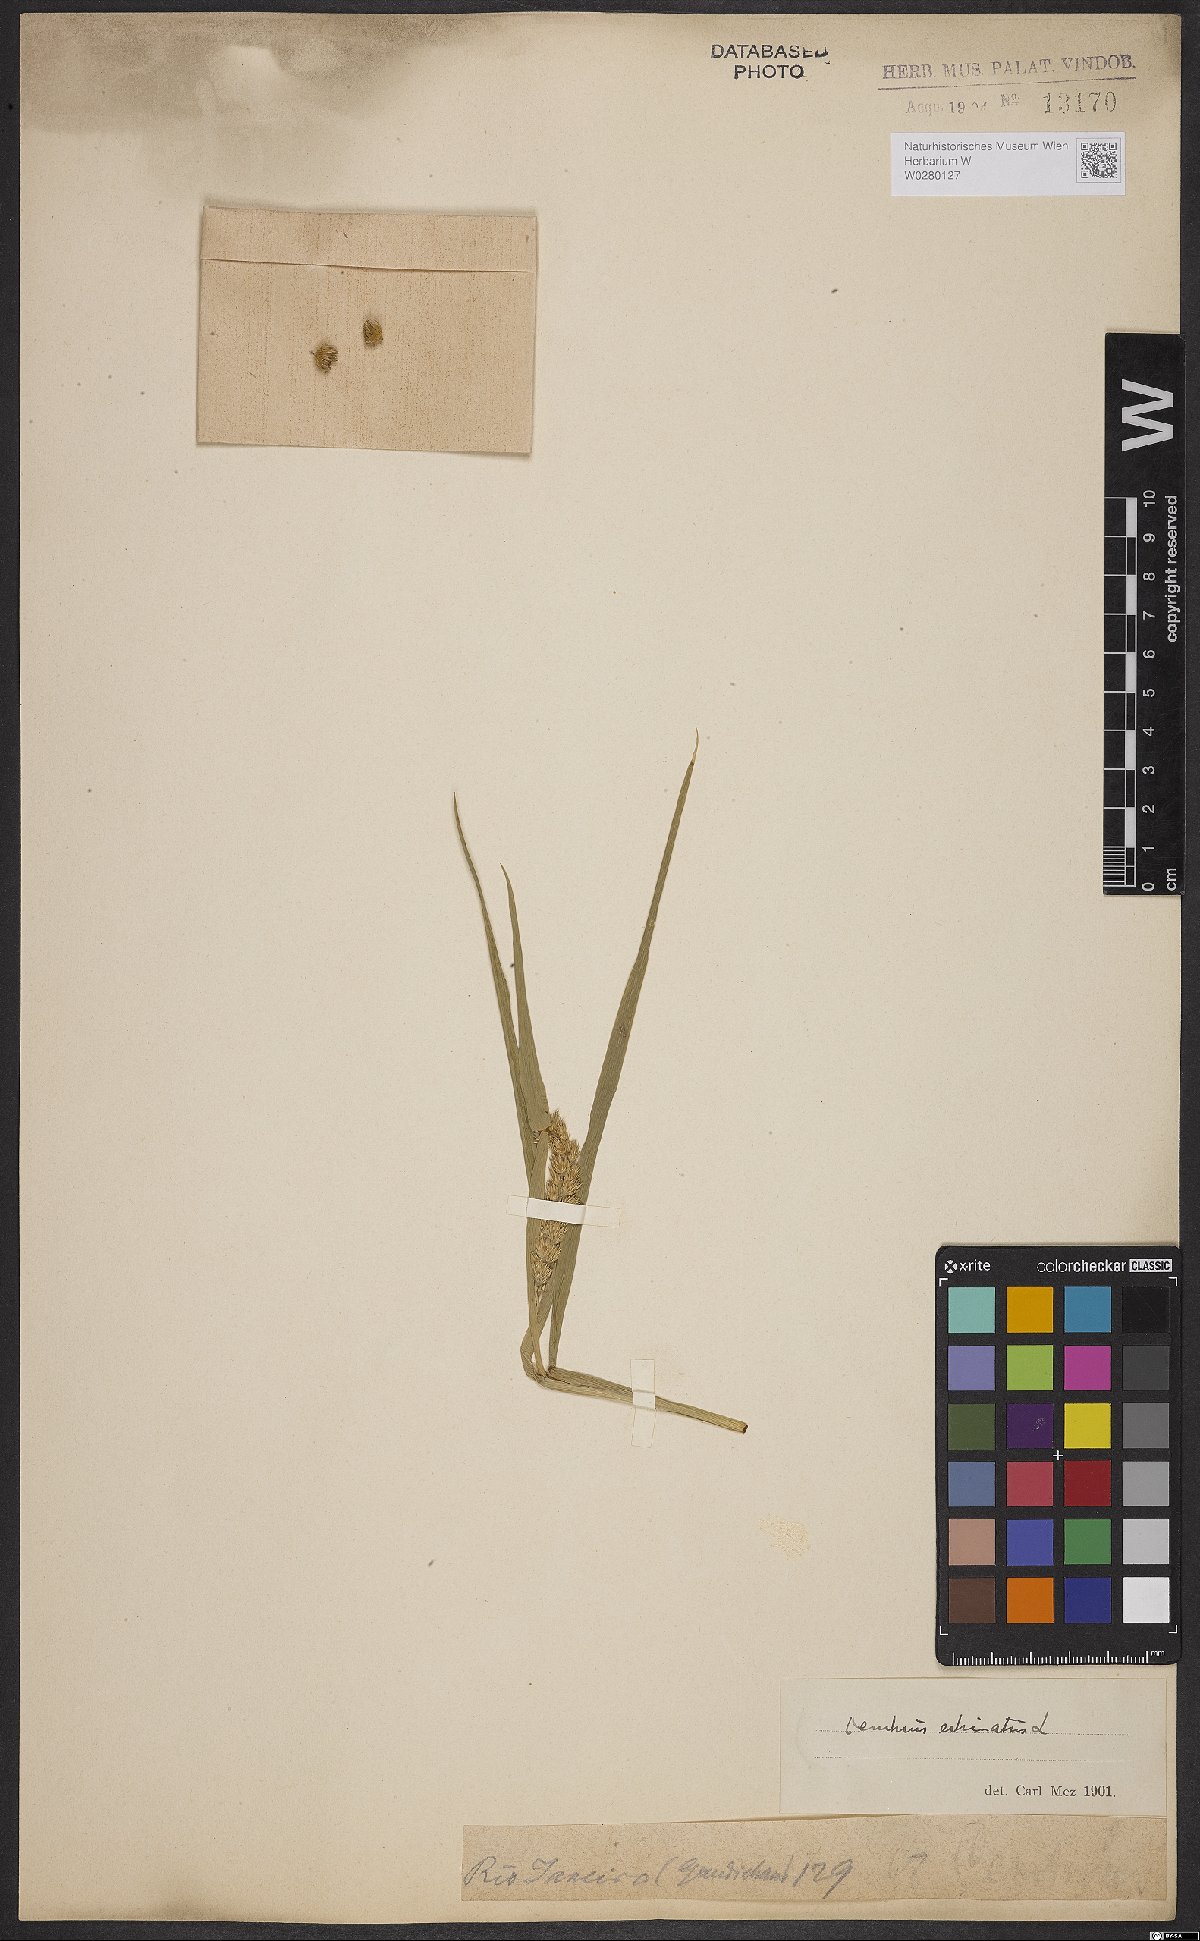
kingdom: Plantae
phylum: Tracheophyta
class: Liliopsida
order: Poales
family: Poaceae
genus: Cenchrus
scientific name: Cenchrus echinatus
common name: Southern sandbur
